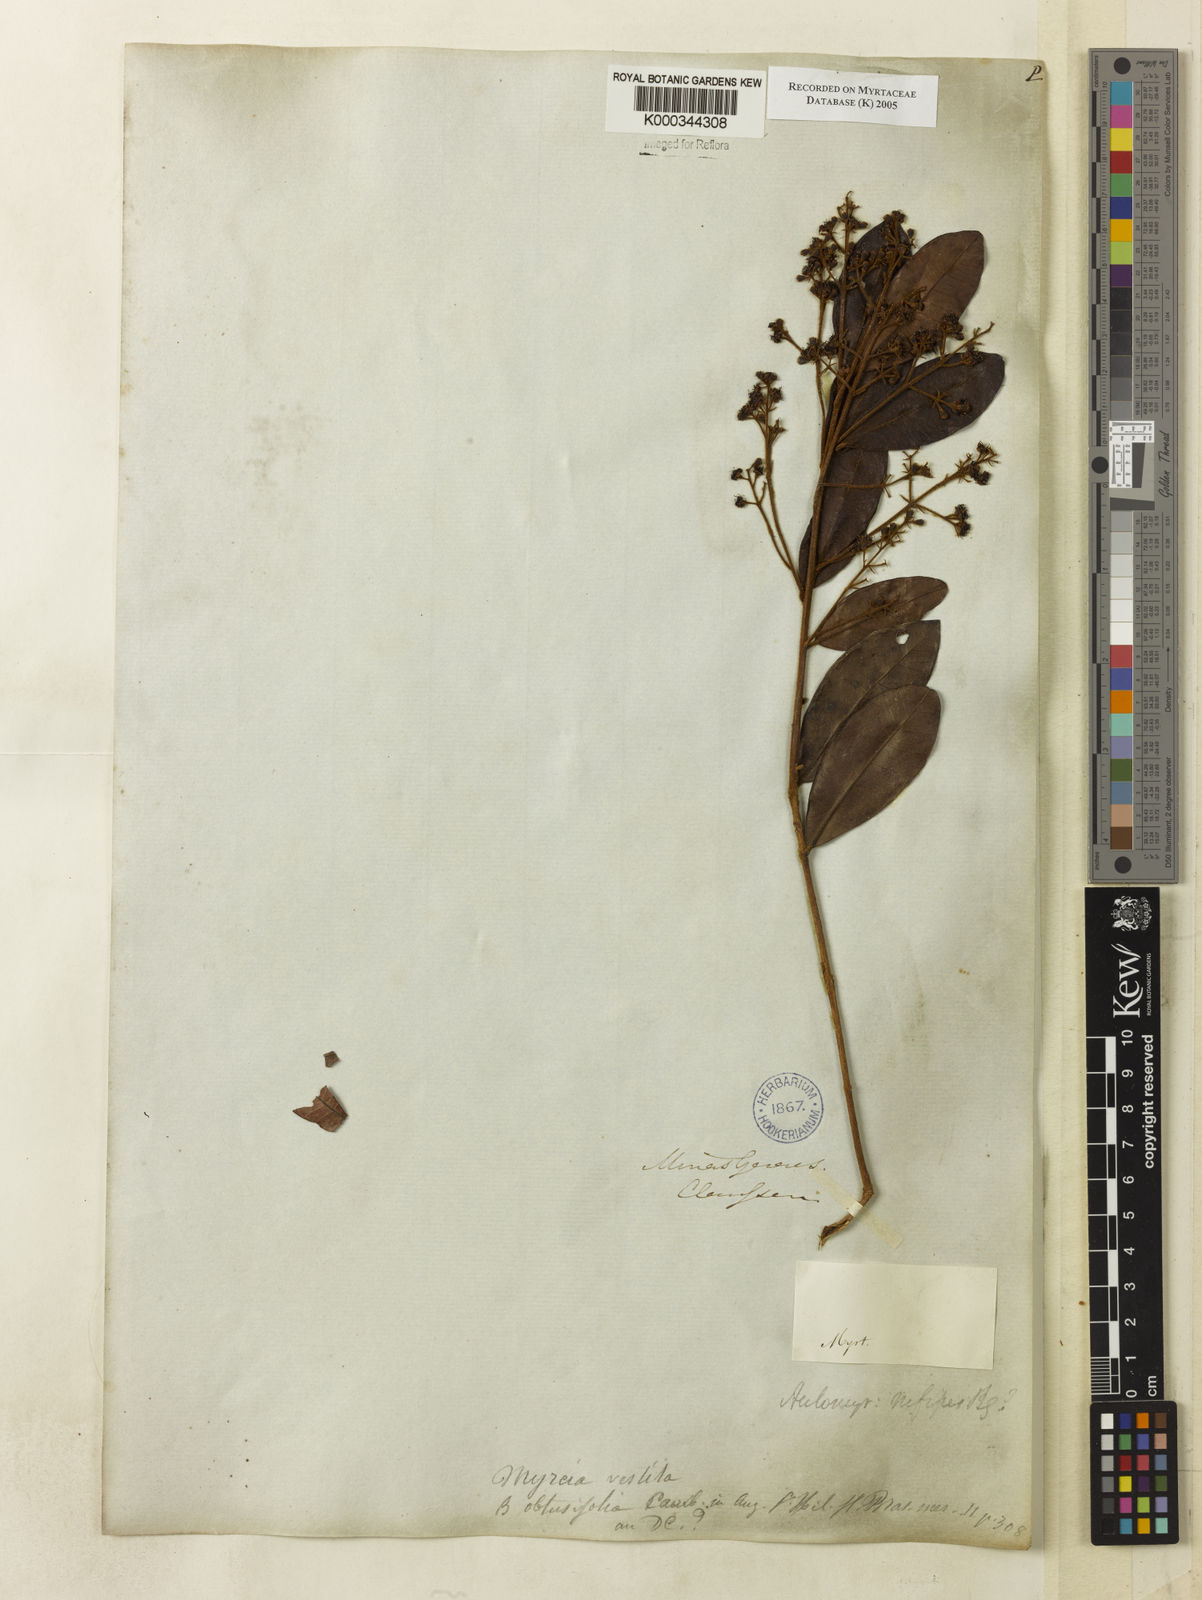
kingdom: Plantae
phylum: Tracheophyta
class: Magnoliopsida
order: Myrtales
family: Myrtaceae
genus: Myrcia
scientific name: Myrcia rufipes
